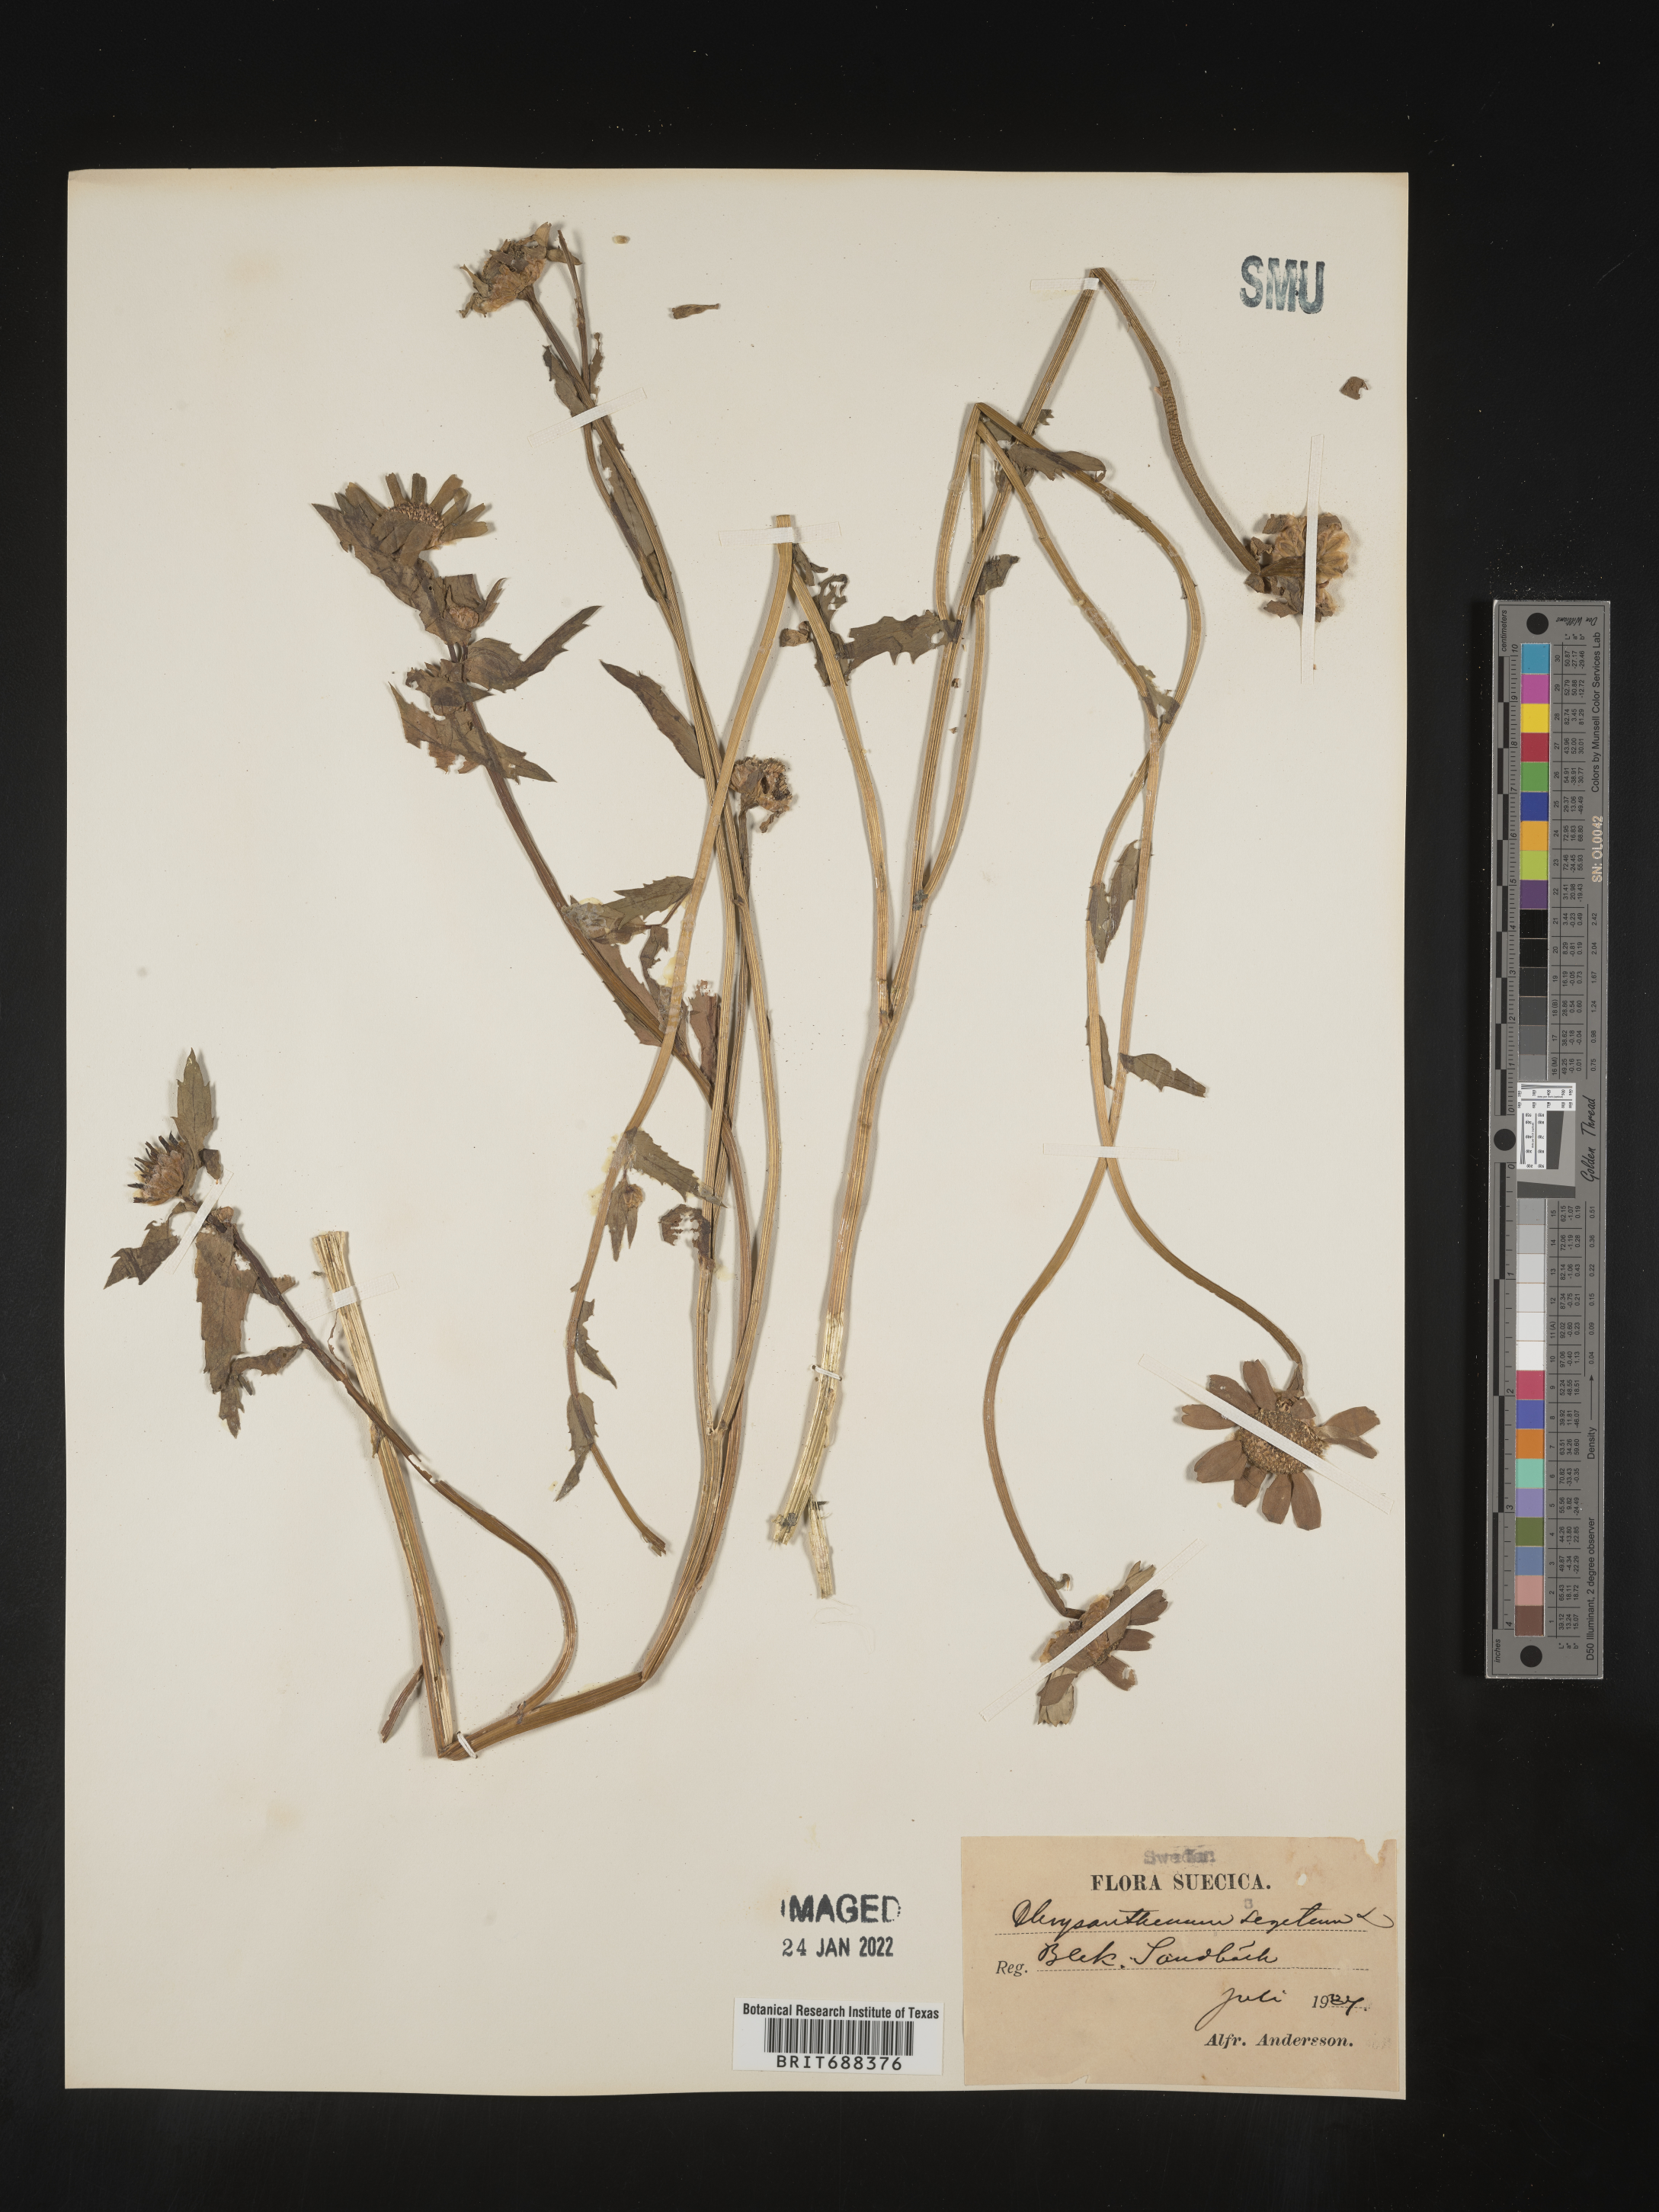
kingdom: Plantae
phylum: Tracheophyta
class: Magnoliopsida
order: Asterales
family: Asteraceae
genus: Chrysanthemum
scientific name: Chrysanthemum
